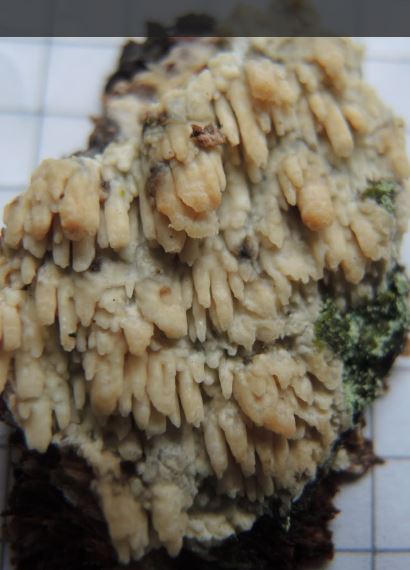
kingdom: Fungi
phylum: Basidiomycota
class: Agaricomycetes
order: Hymenochaetales
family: Schizoporaceae
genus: Xylodon
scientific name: Xylodon radula
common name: grovtandet kalkskind
